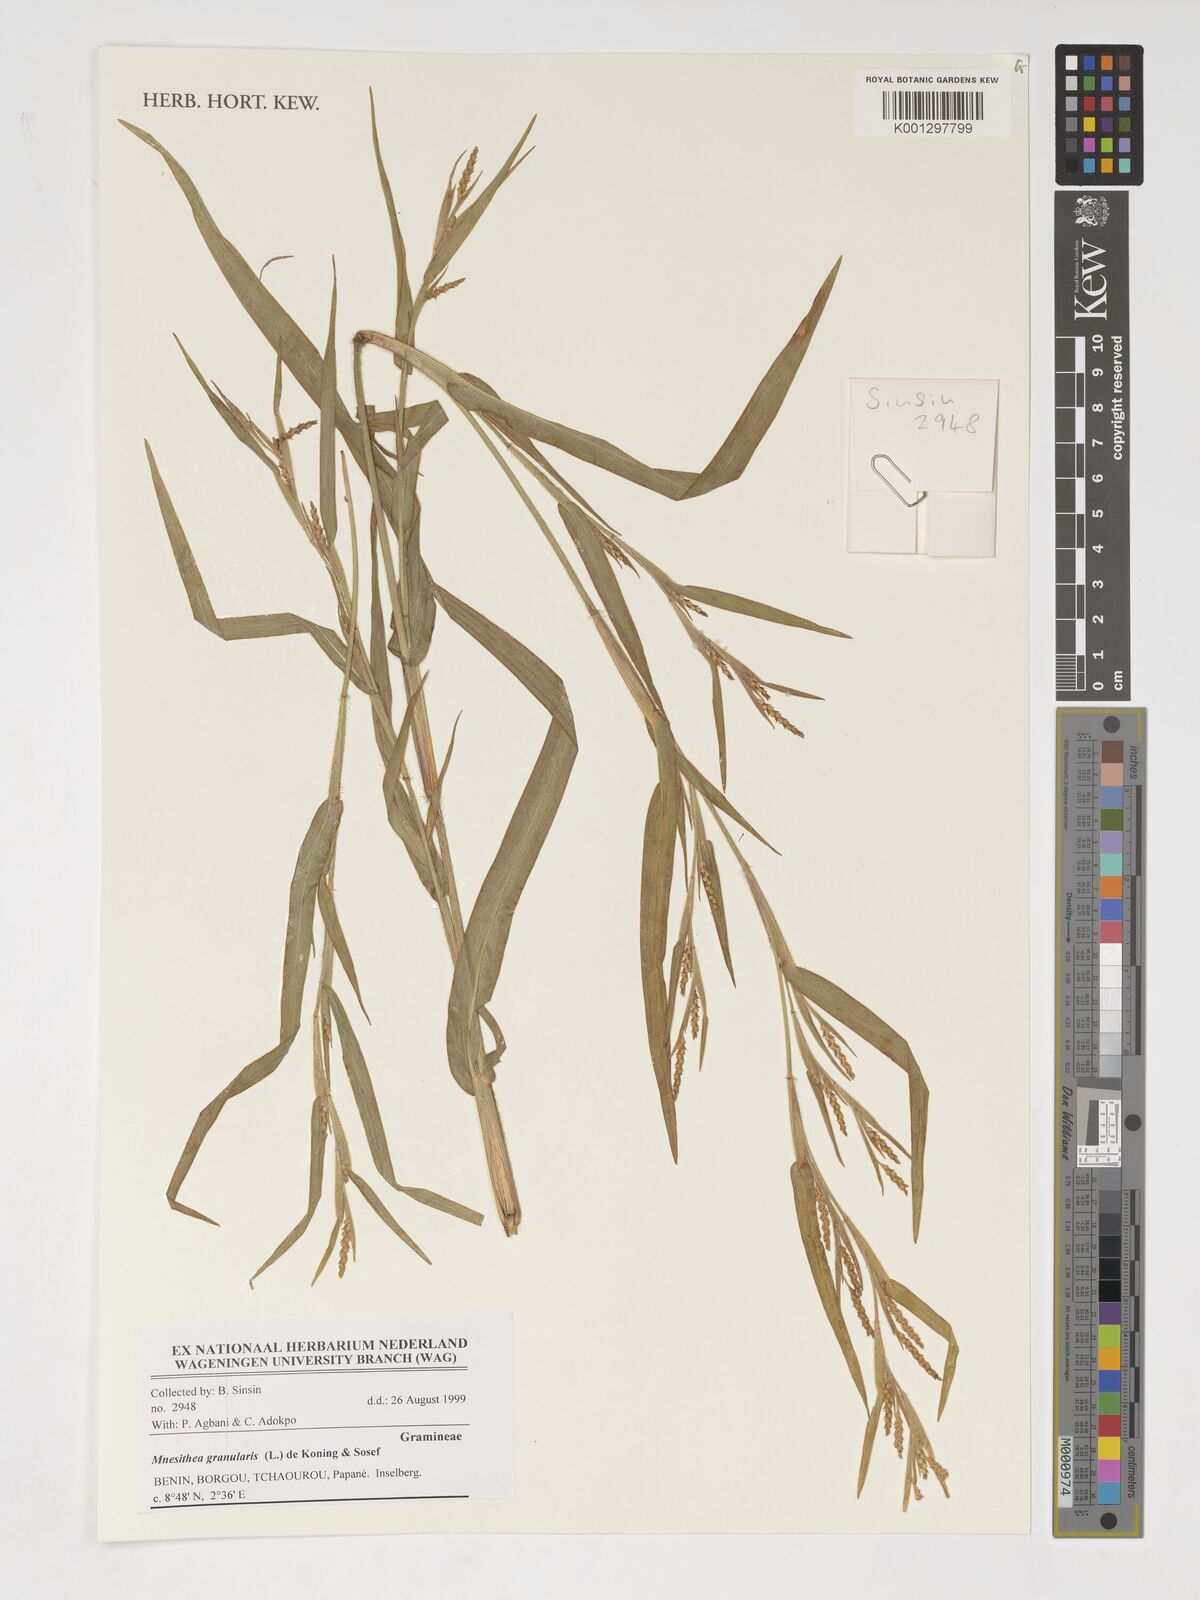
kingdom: Plantae
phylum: Tracheophyta
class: Liliopsida
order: Poales
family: Poaceae
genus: Hackelochloa
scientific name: Hackelochloa granularis
